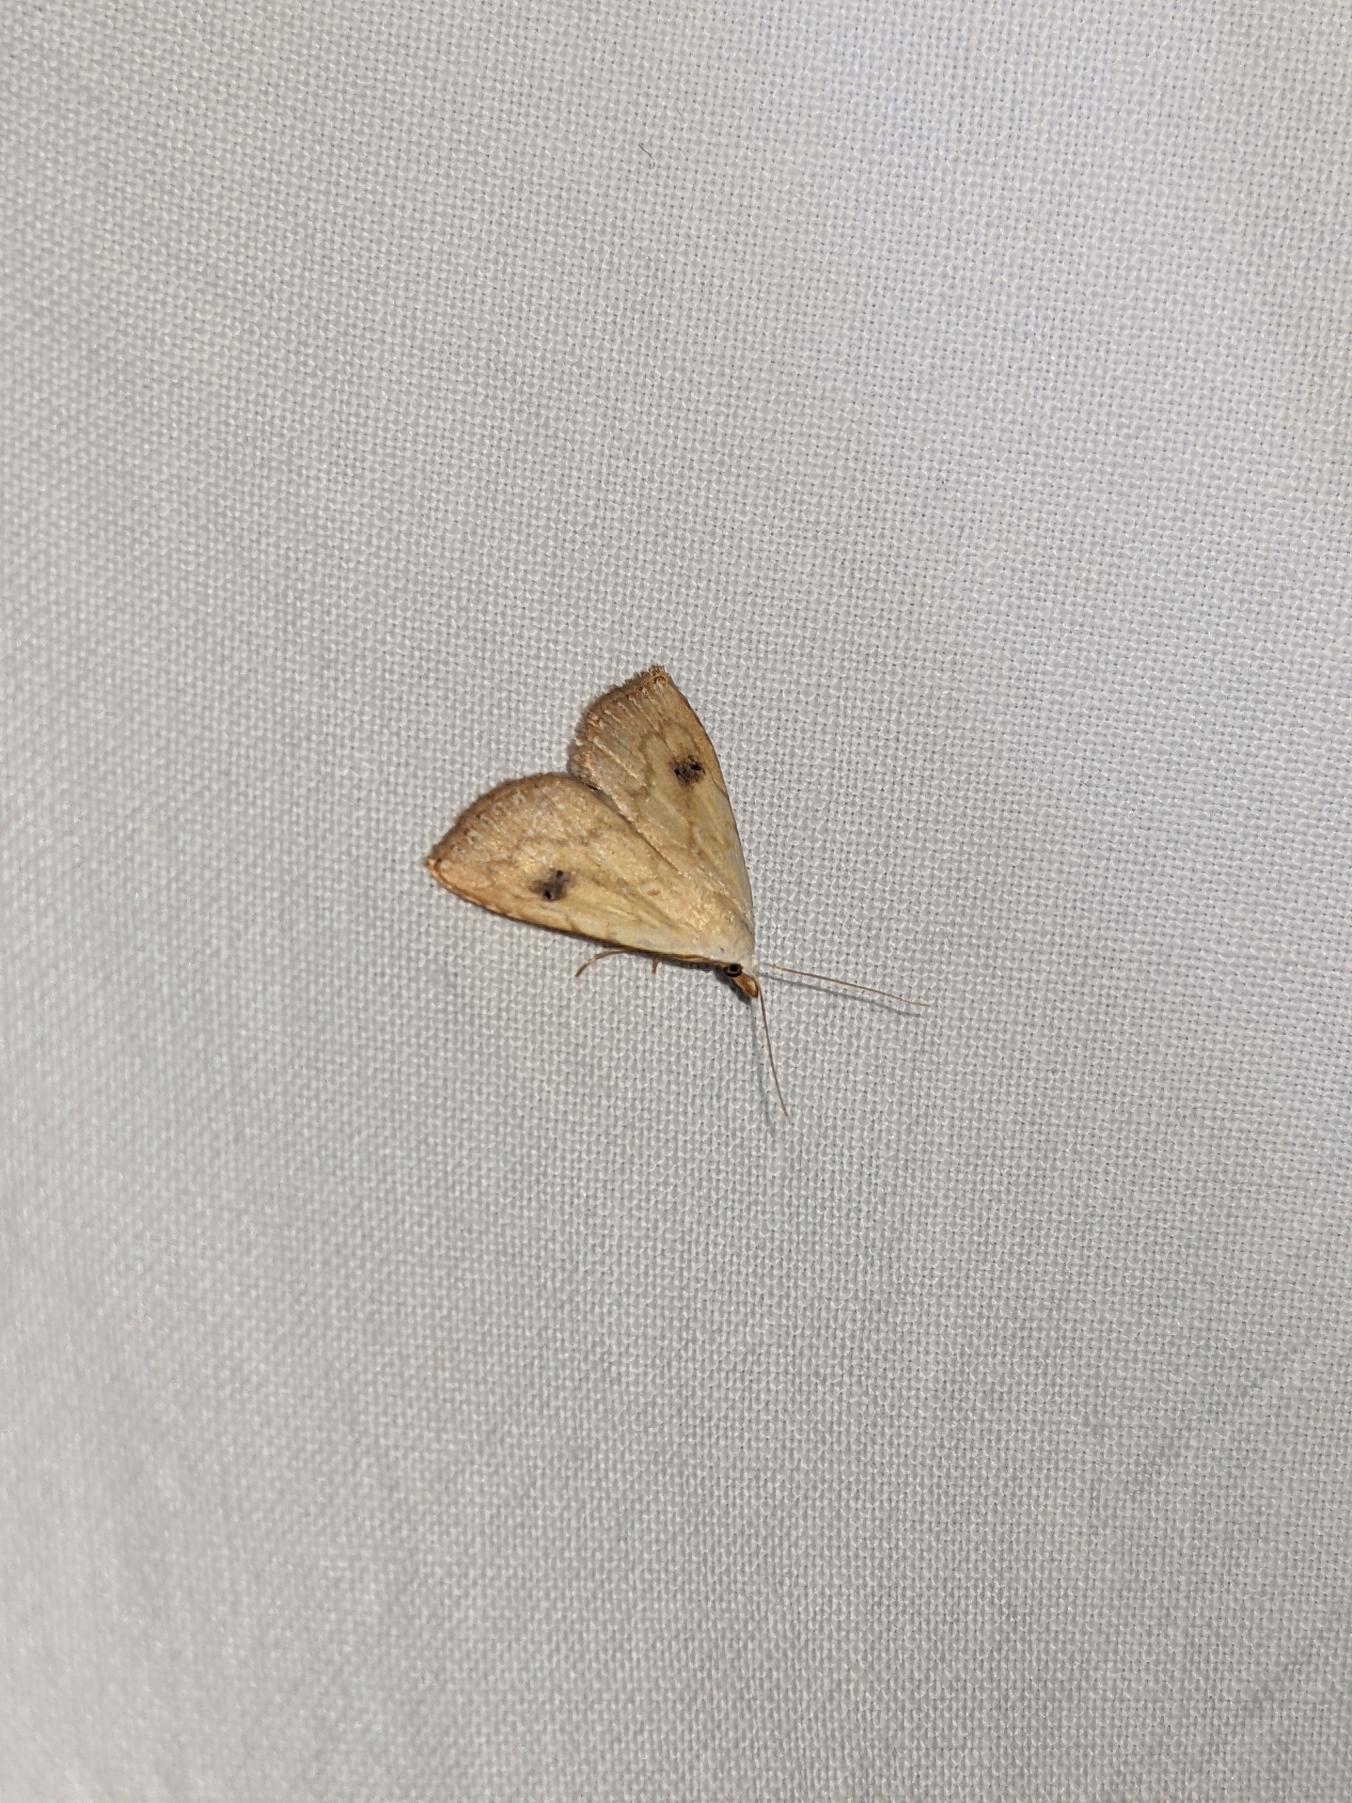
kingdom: Animalia
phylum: Arthropoda
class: Insecta
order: Lepidoptera
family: Erebidae
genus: Rivula
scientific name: Rivula sericealis
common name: Lille å-ugle
